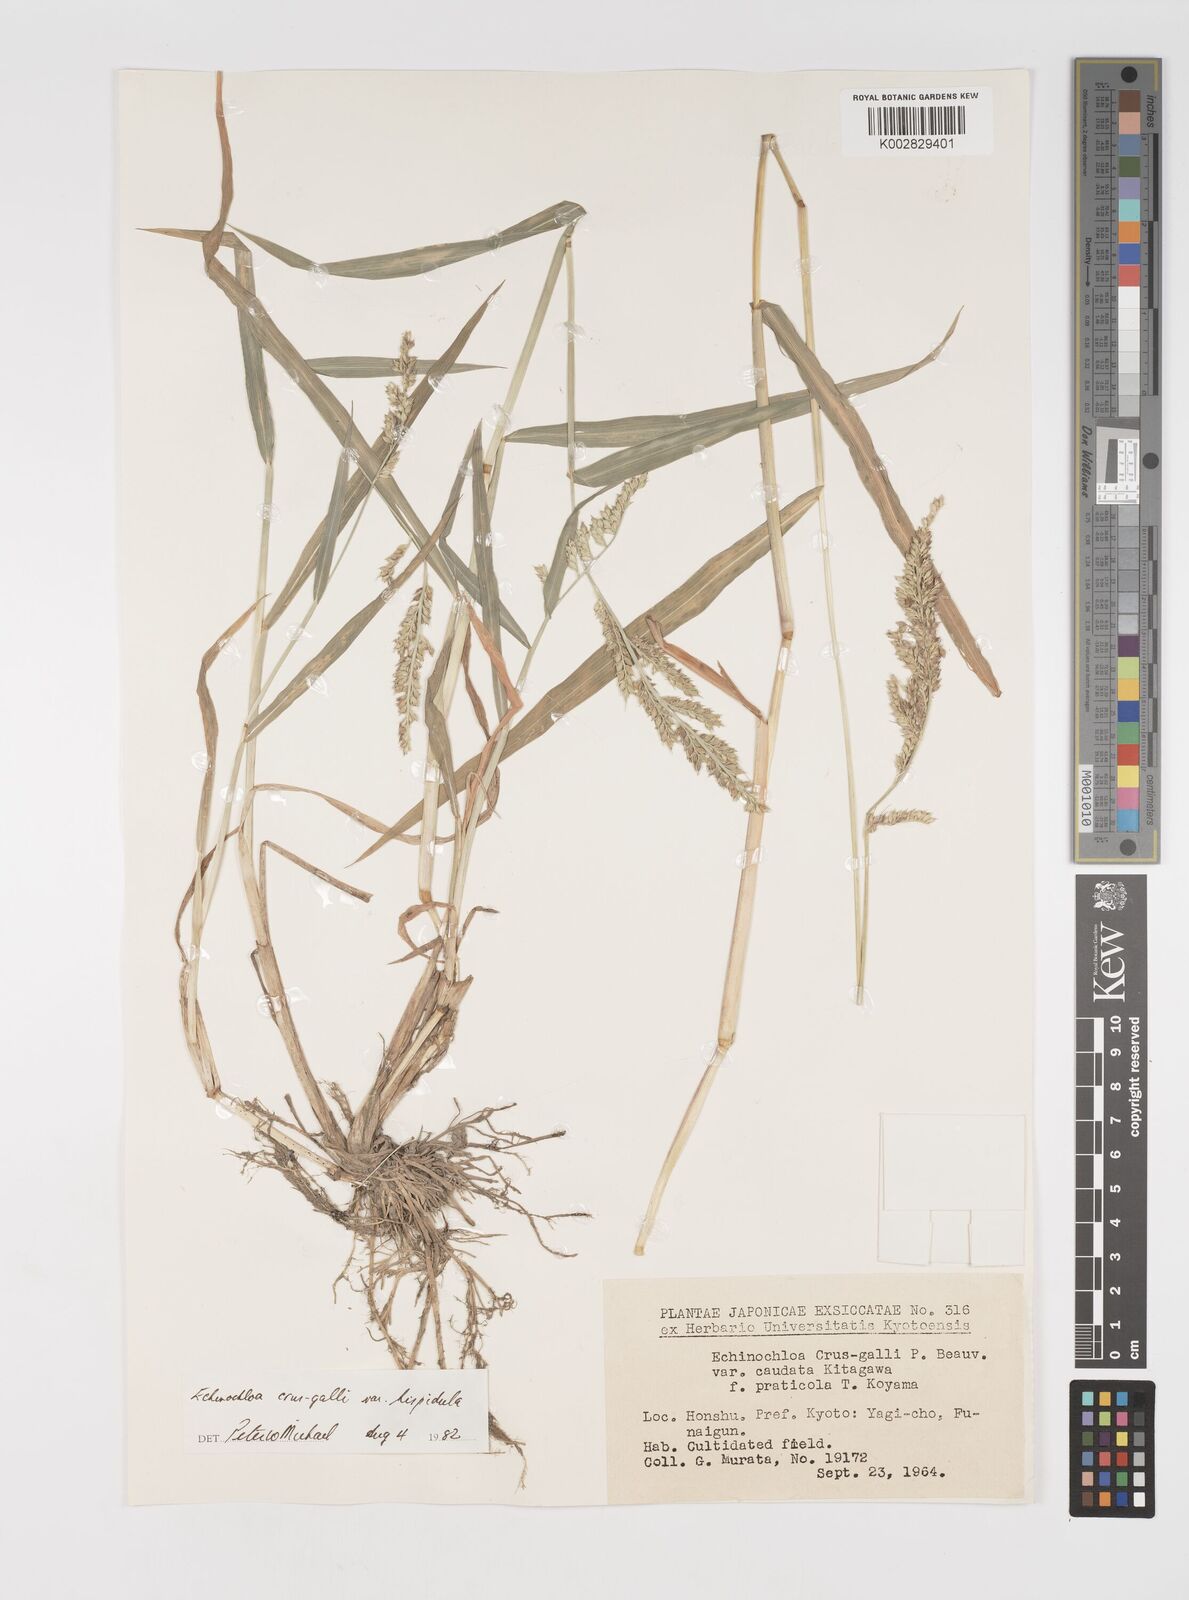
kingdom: Plantae
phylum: Tracheophyta
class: Liliopsida
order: Poales
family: Poaceae
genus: Echinochloa
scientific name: Echinochloa crus-galli
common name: Cockspur
